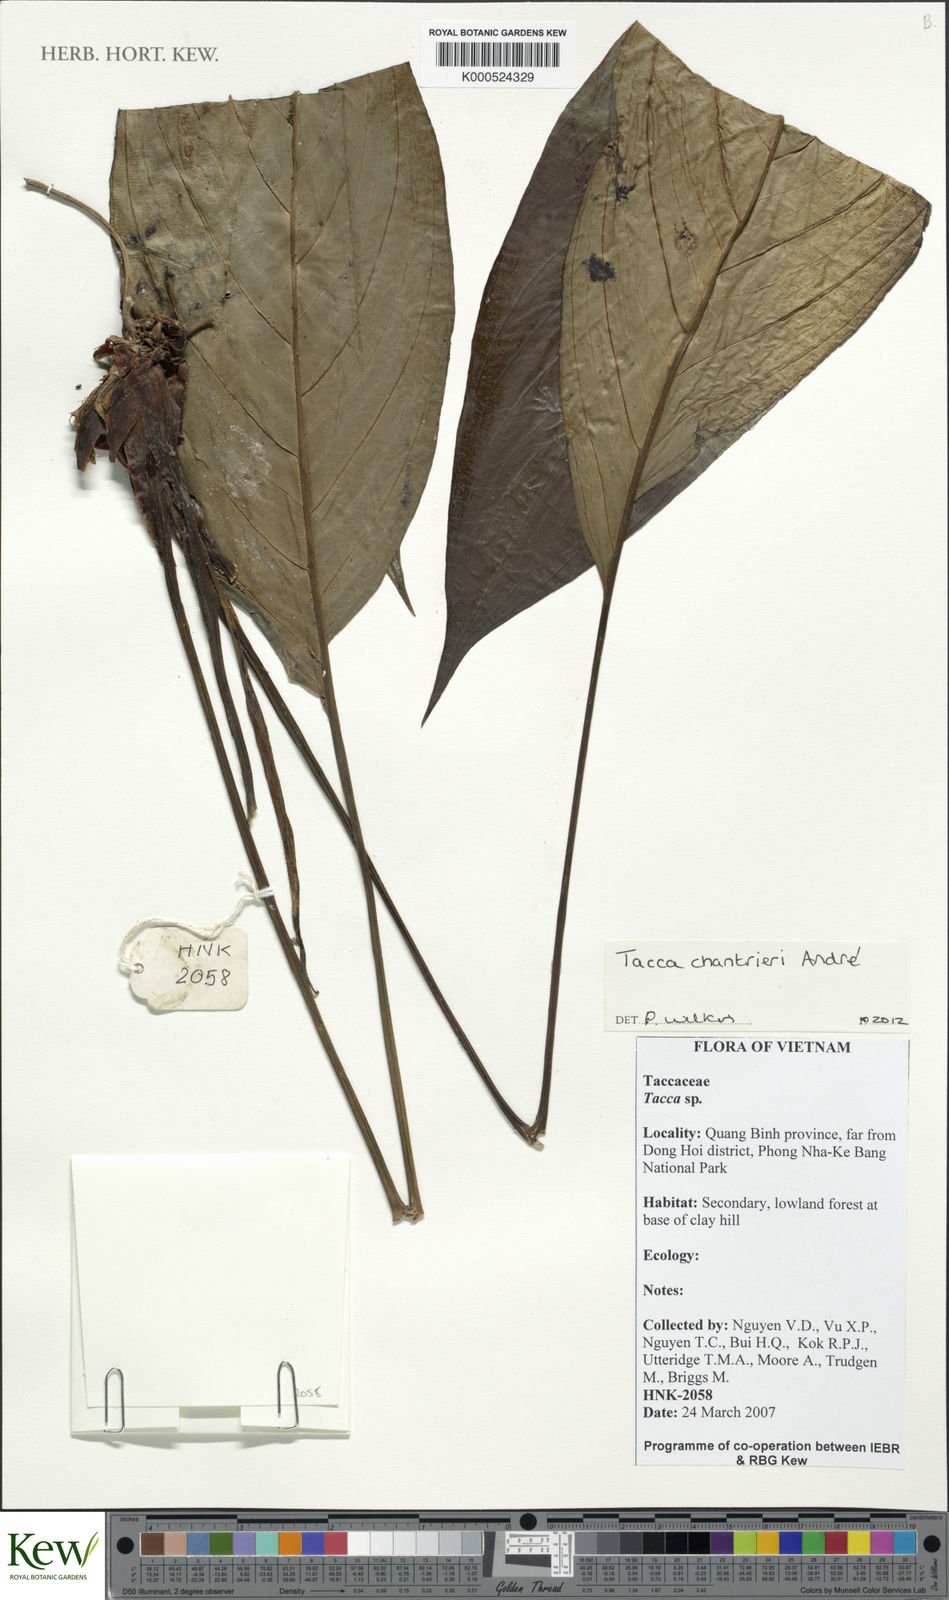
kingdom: Plantae
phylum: Tracheophyta
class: Liliopsida
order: Dioscoreales
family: Dioscoreaceae
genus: Tacca
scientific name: Tacca chantrieri
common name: Cat's-whiskers
